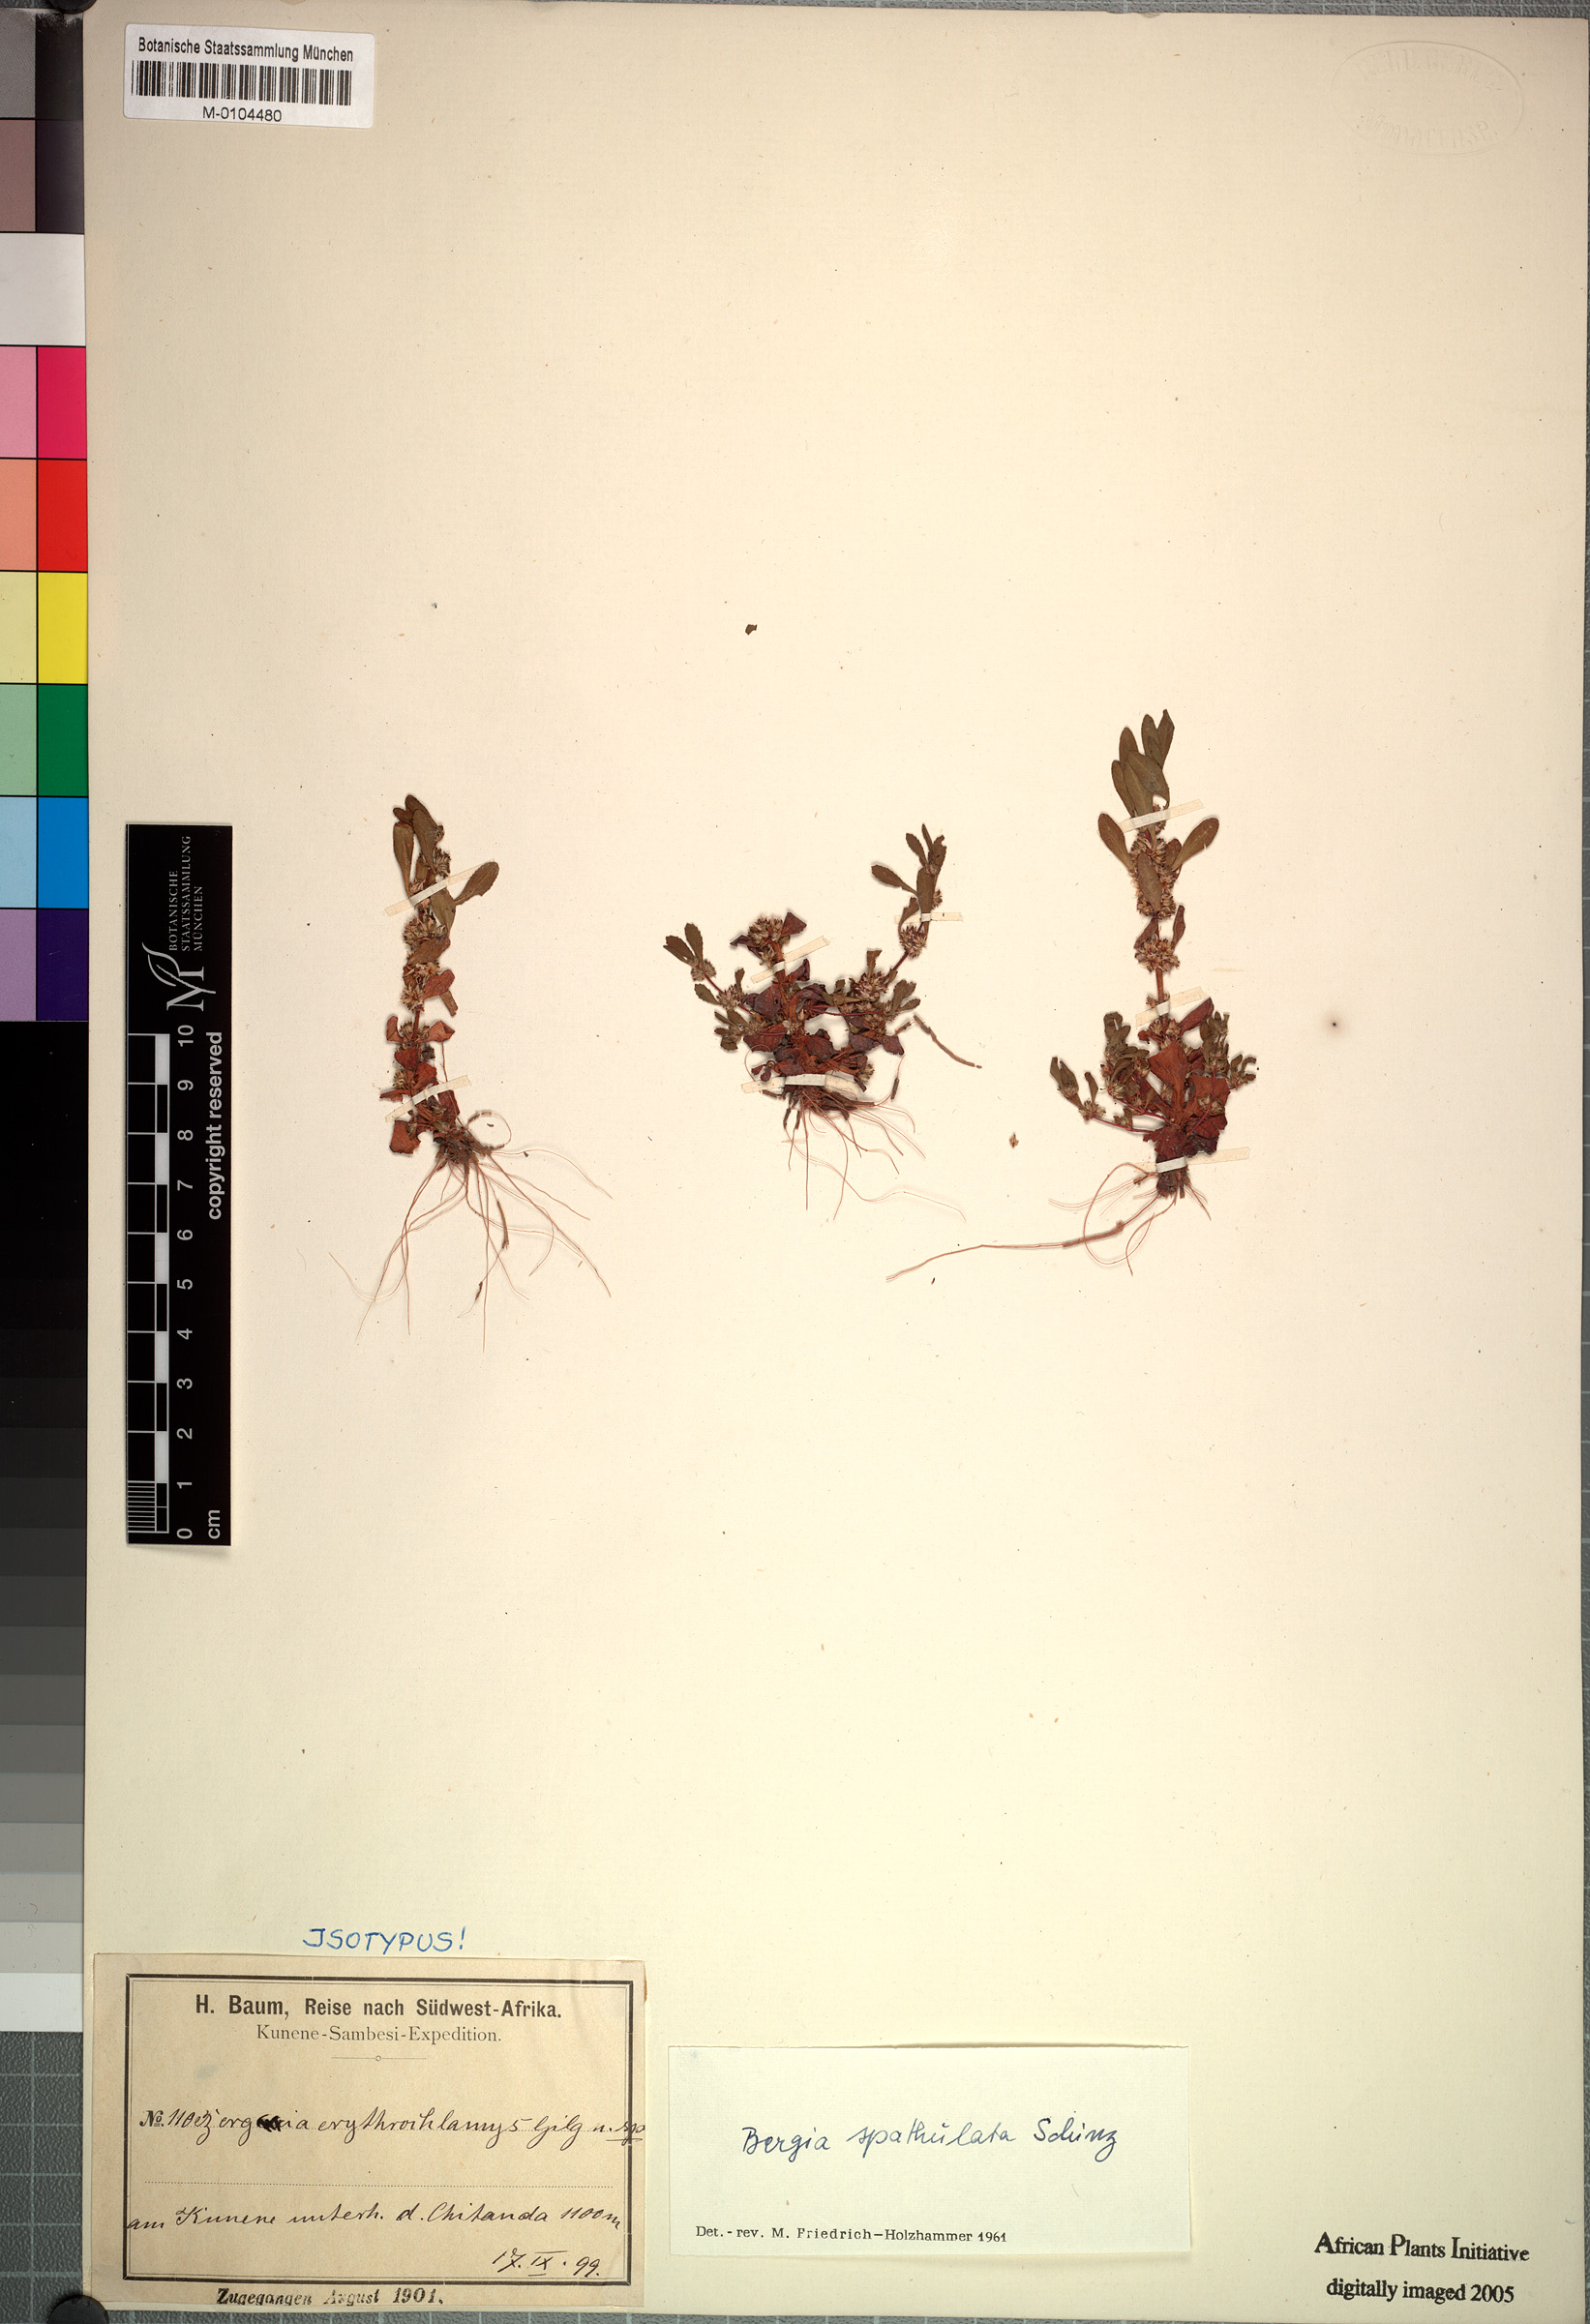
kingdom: Plantae
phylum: Tracheophyta
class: Magnoliopsida
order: Malpighiales
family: Elatinaceae
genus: Bergia
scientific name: Bergia spathulata
